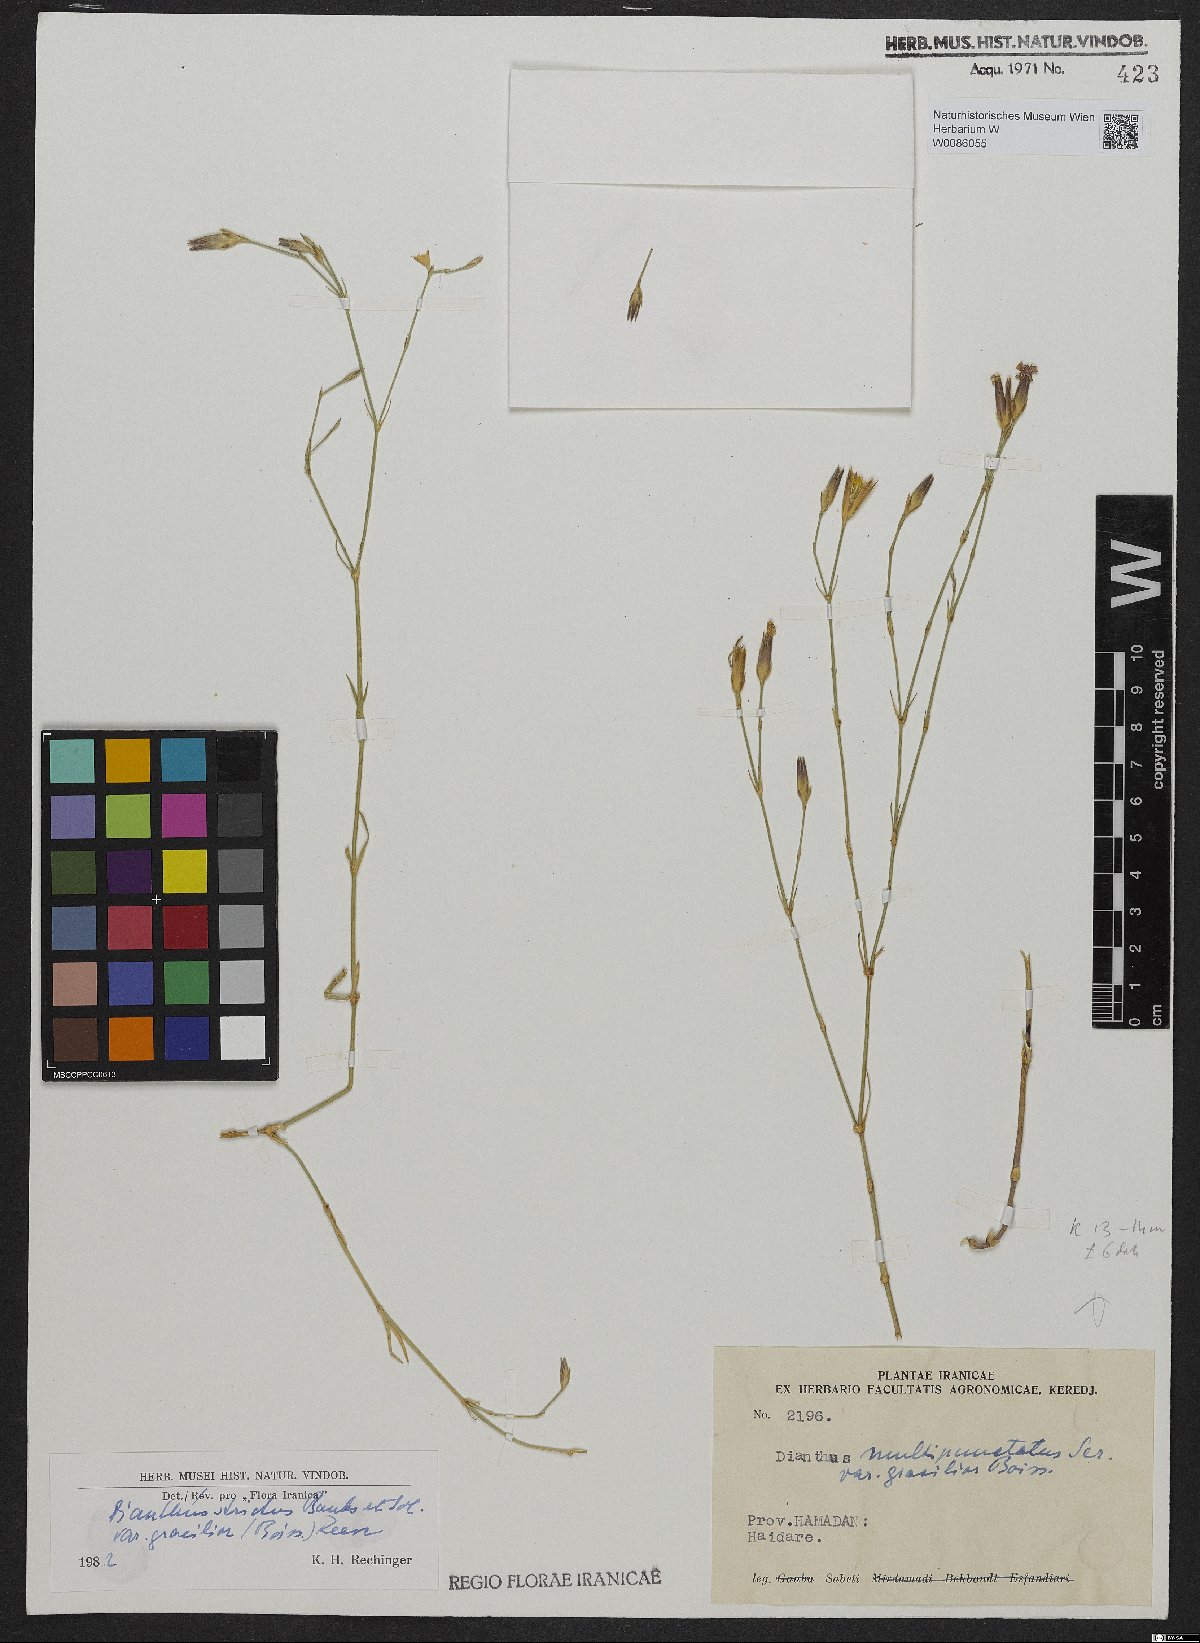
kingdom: Plantae
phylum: Tracheophyta
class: Magnoliopsida
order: Caryophyllales
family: Caryophyllaceae
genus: Dianthus
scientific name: Dianthus strictus
